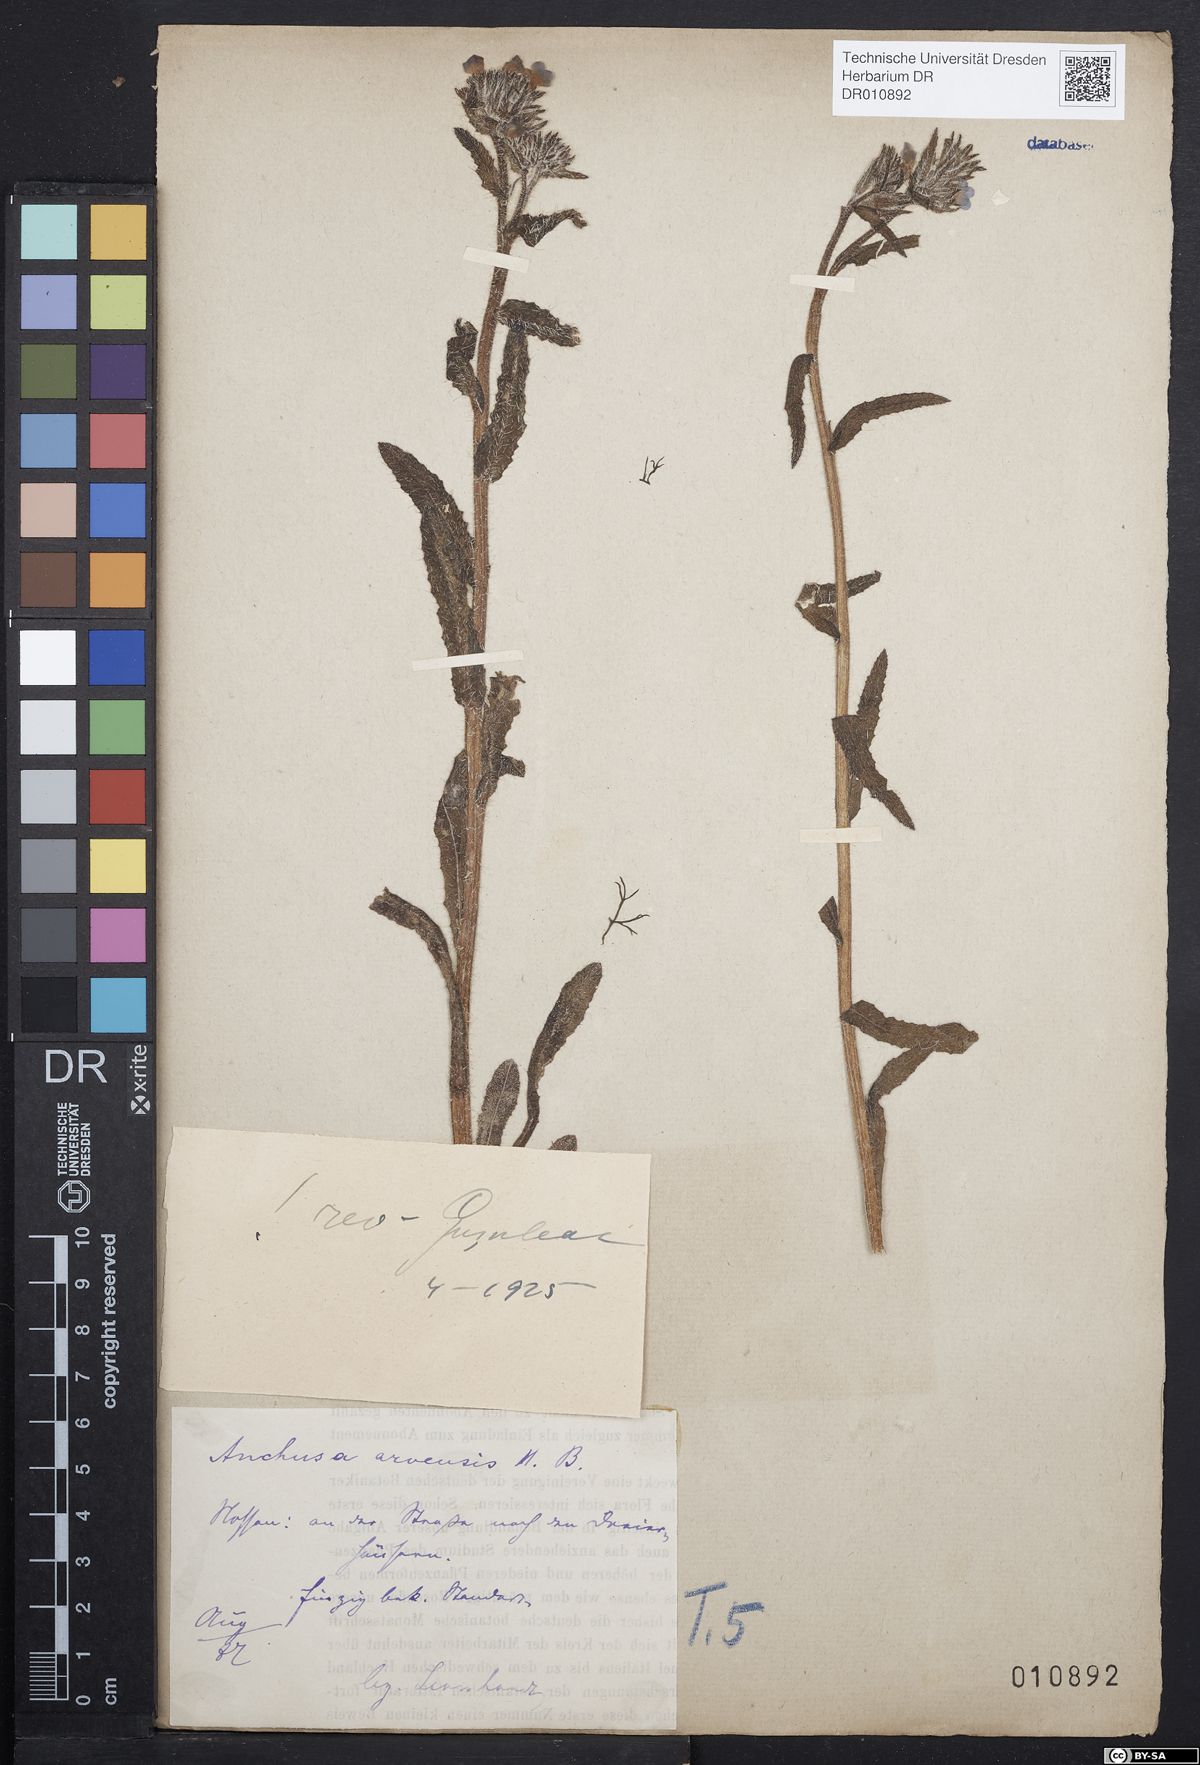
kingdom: Plantae
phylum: Tracheophyta
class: Magnoliopsida
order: Boraginales
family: Boraginaceae
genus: Lycopsis
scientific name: Lycopsis arvensis
